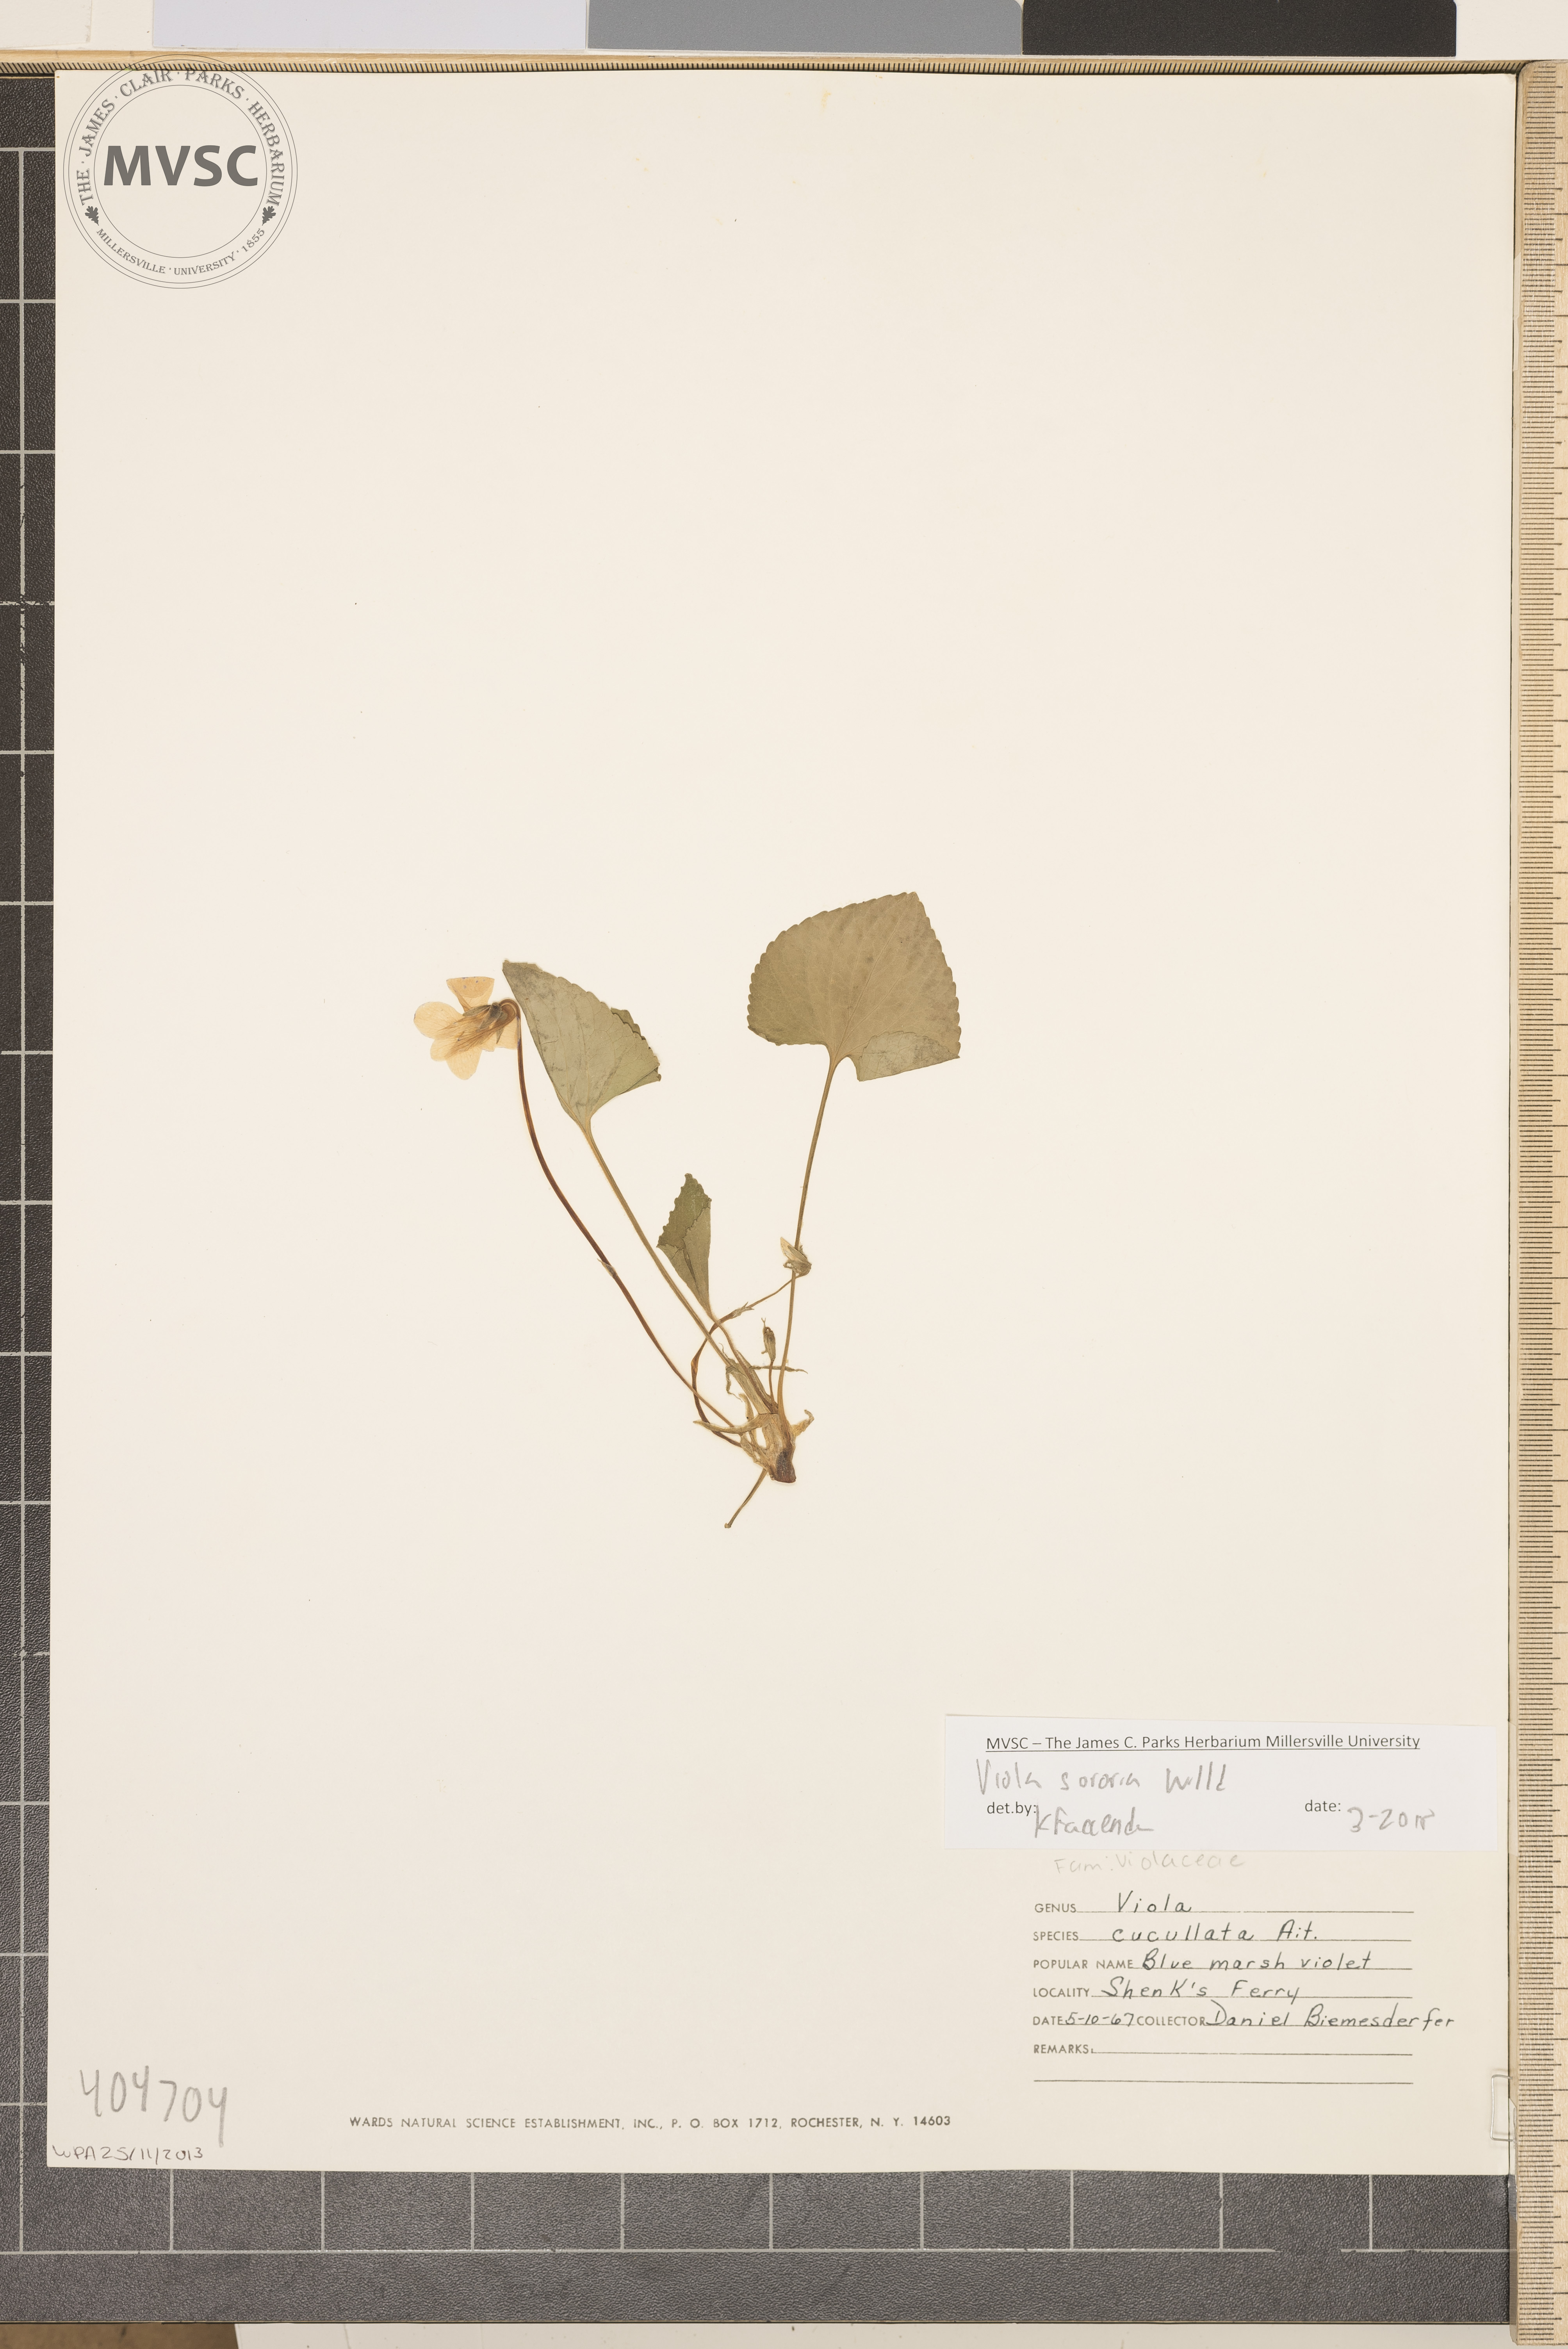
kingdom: Plantae
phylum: Tracheophyta
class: Magnoliopsida
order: Malpighiales
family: Violaceae
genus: Viola
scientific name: Viola sororia
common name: Dooryard violet
